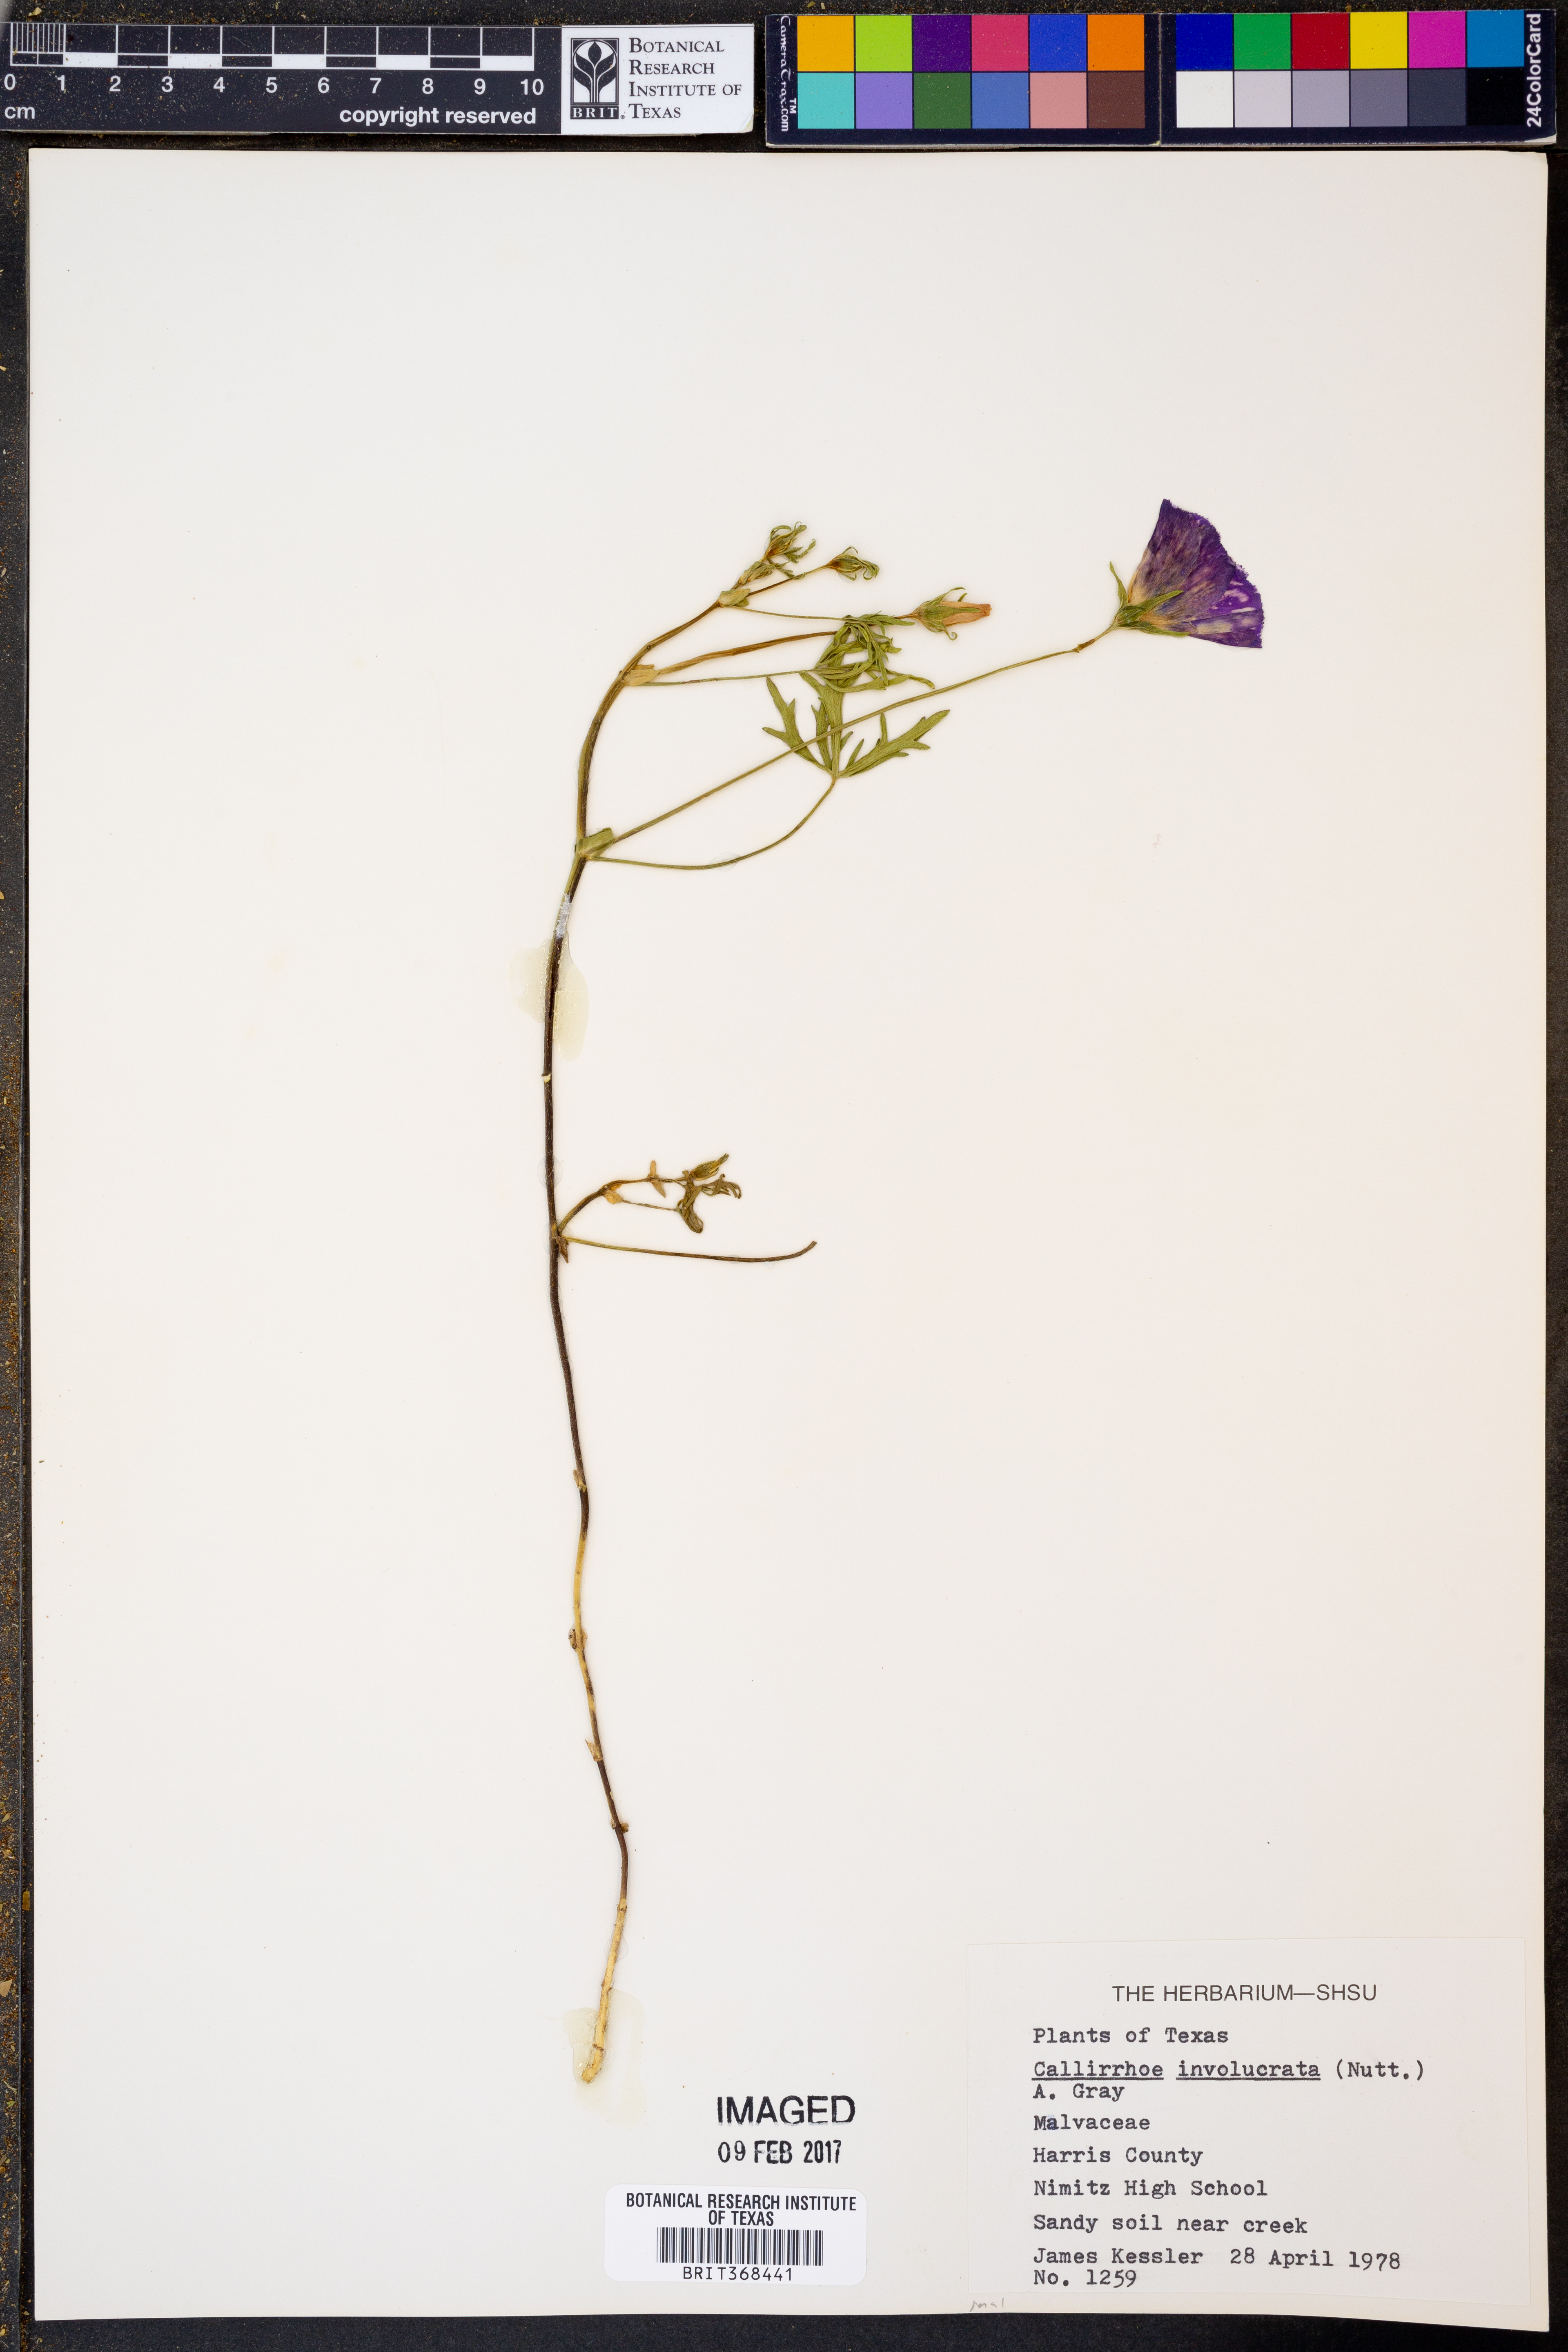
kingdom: Plantae
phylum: Tracheophyta
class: Magnoliopsida
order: Malvales
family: Malvaceae
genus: Callirhoe
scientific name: Callirhoe involucrata
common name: Purple poppy-mallow
